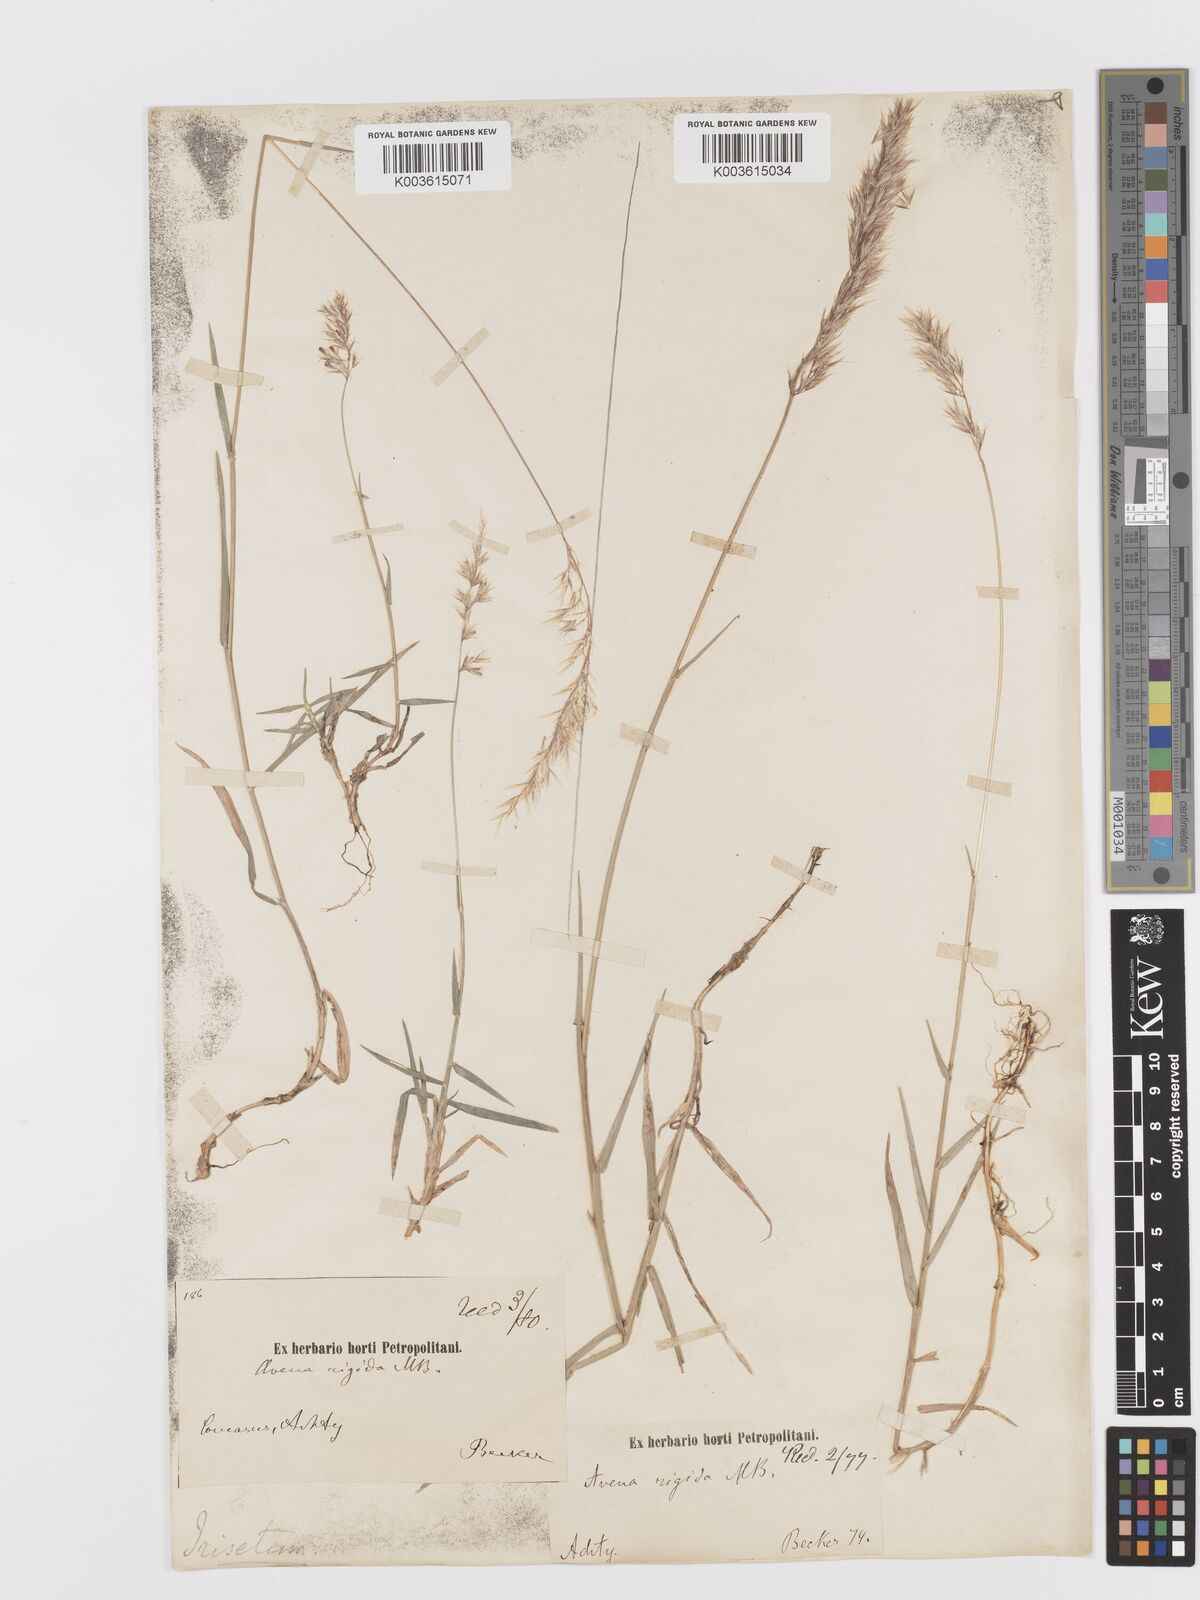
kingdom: Plantae
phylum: Tracheophyta
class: Liliopsida
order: Poales
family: Poaceae
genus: Trisetum
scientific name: Trisetum rigidum
